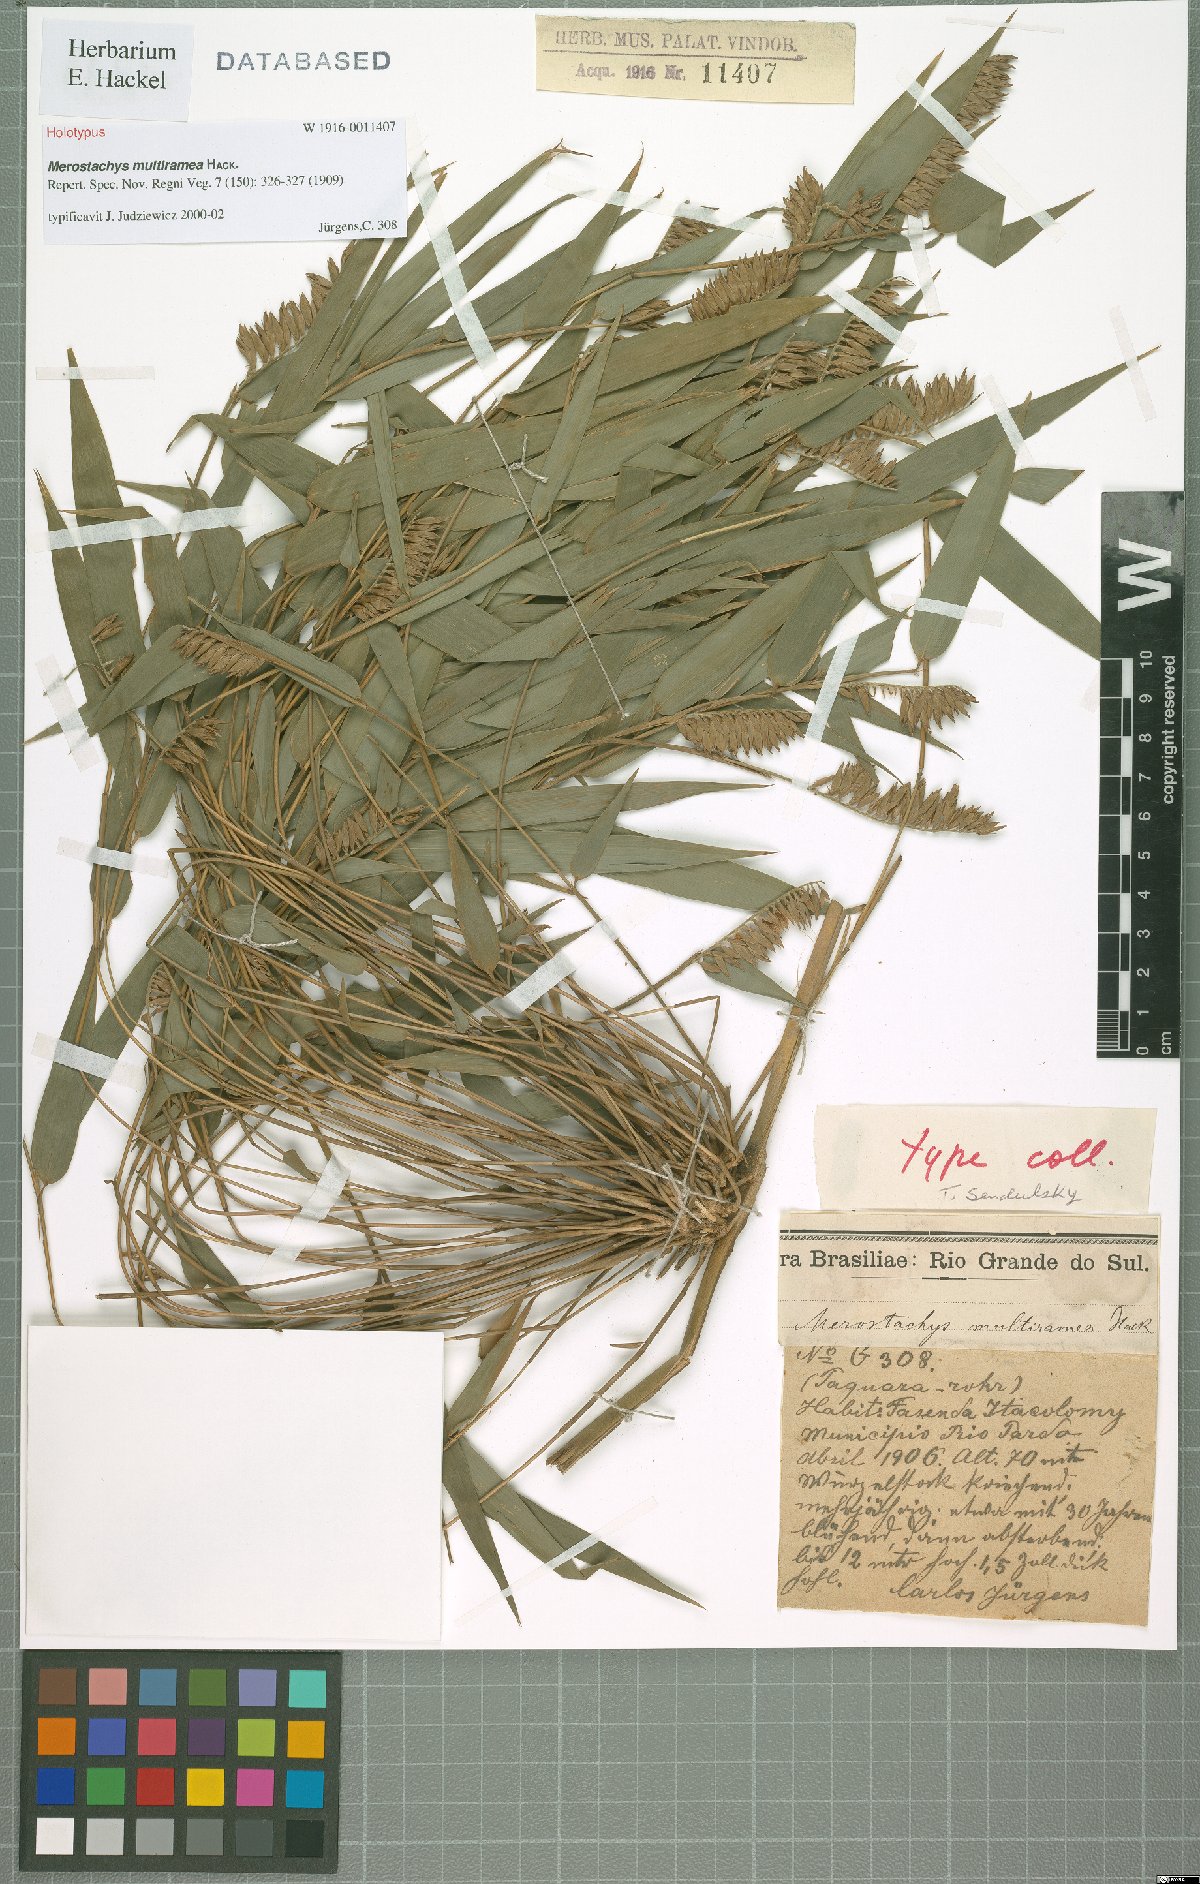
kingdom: Plantae
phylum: Tracheophyta
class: Liliopsida
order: Poales
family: Poaceae
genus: Merostachys
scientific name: Merostachys multiramea
